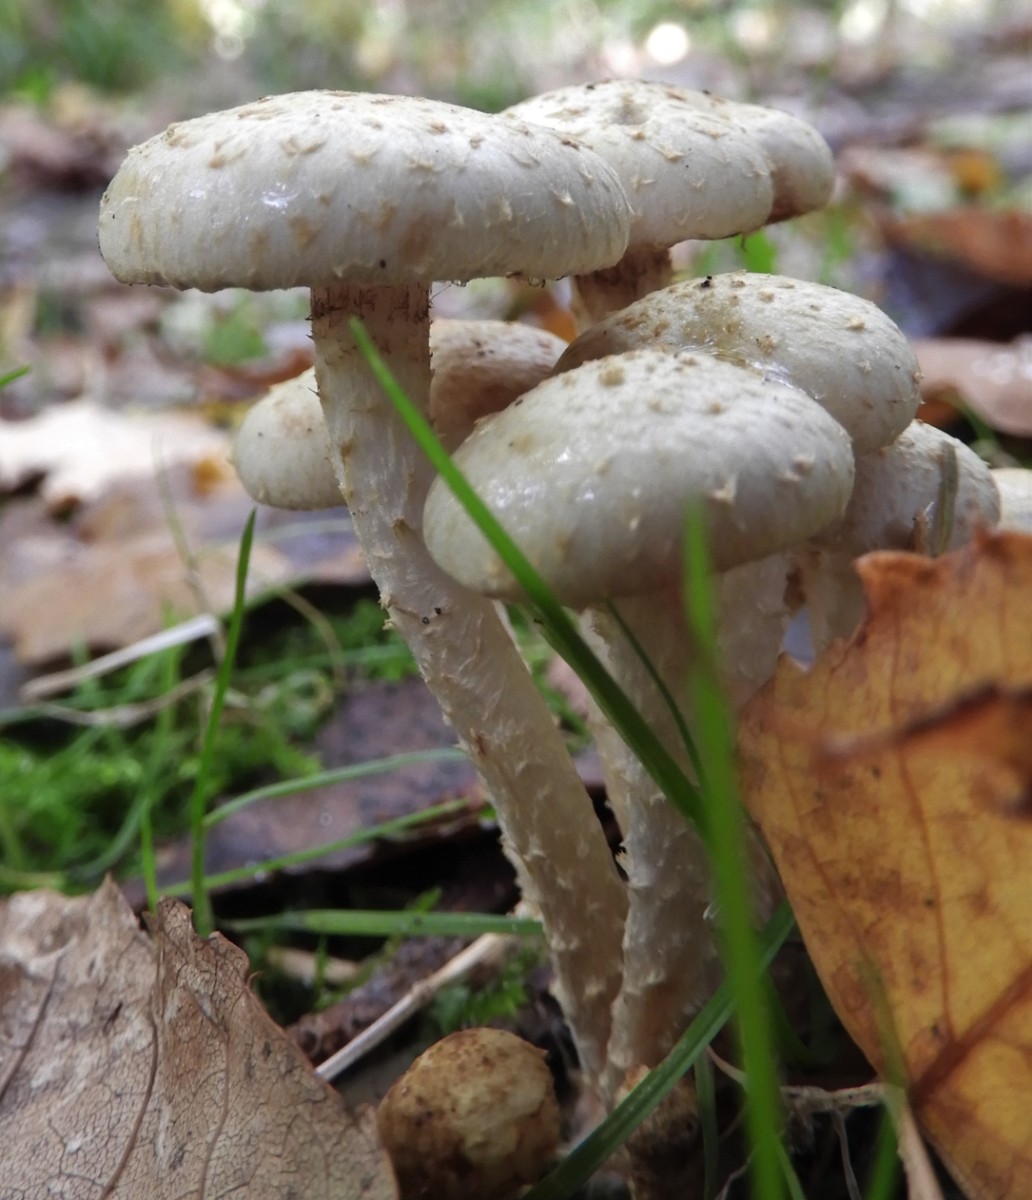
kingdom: Fungi
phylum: Basidiomycota
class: Agaricomycetes
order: Agaricales
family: Strophariaceae
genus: Pholiota
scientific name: Pholiota gummosa
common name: grøngul skælhat
